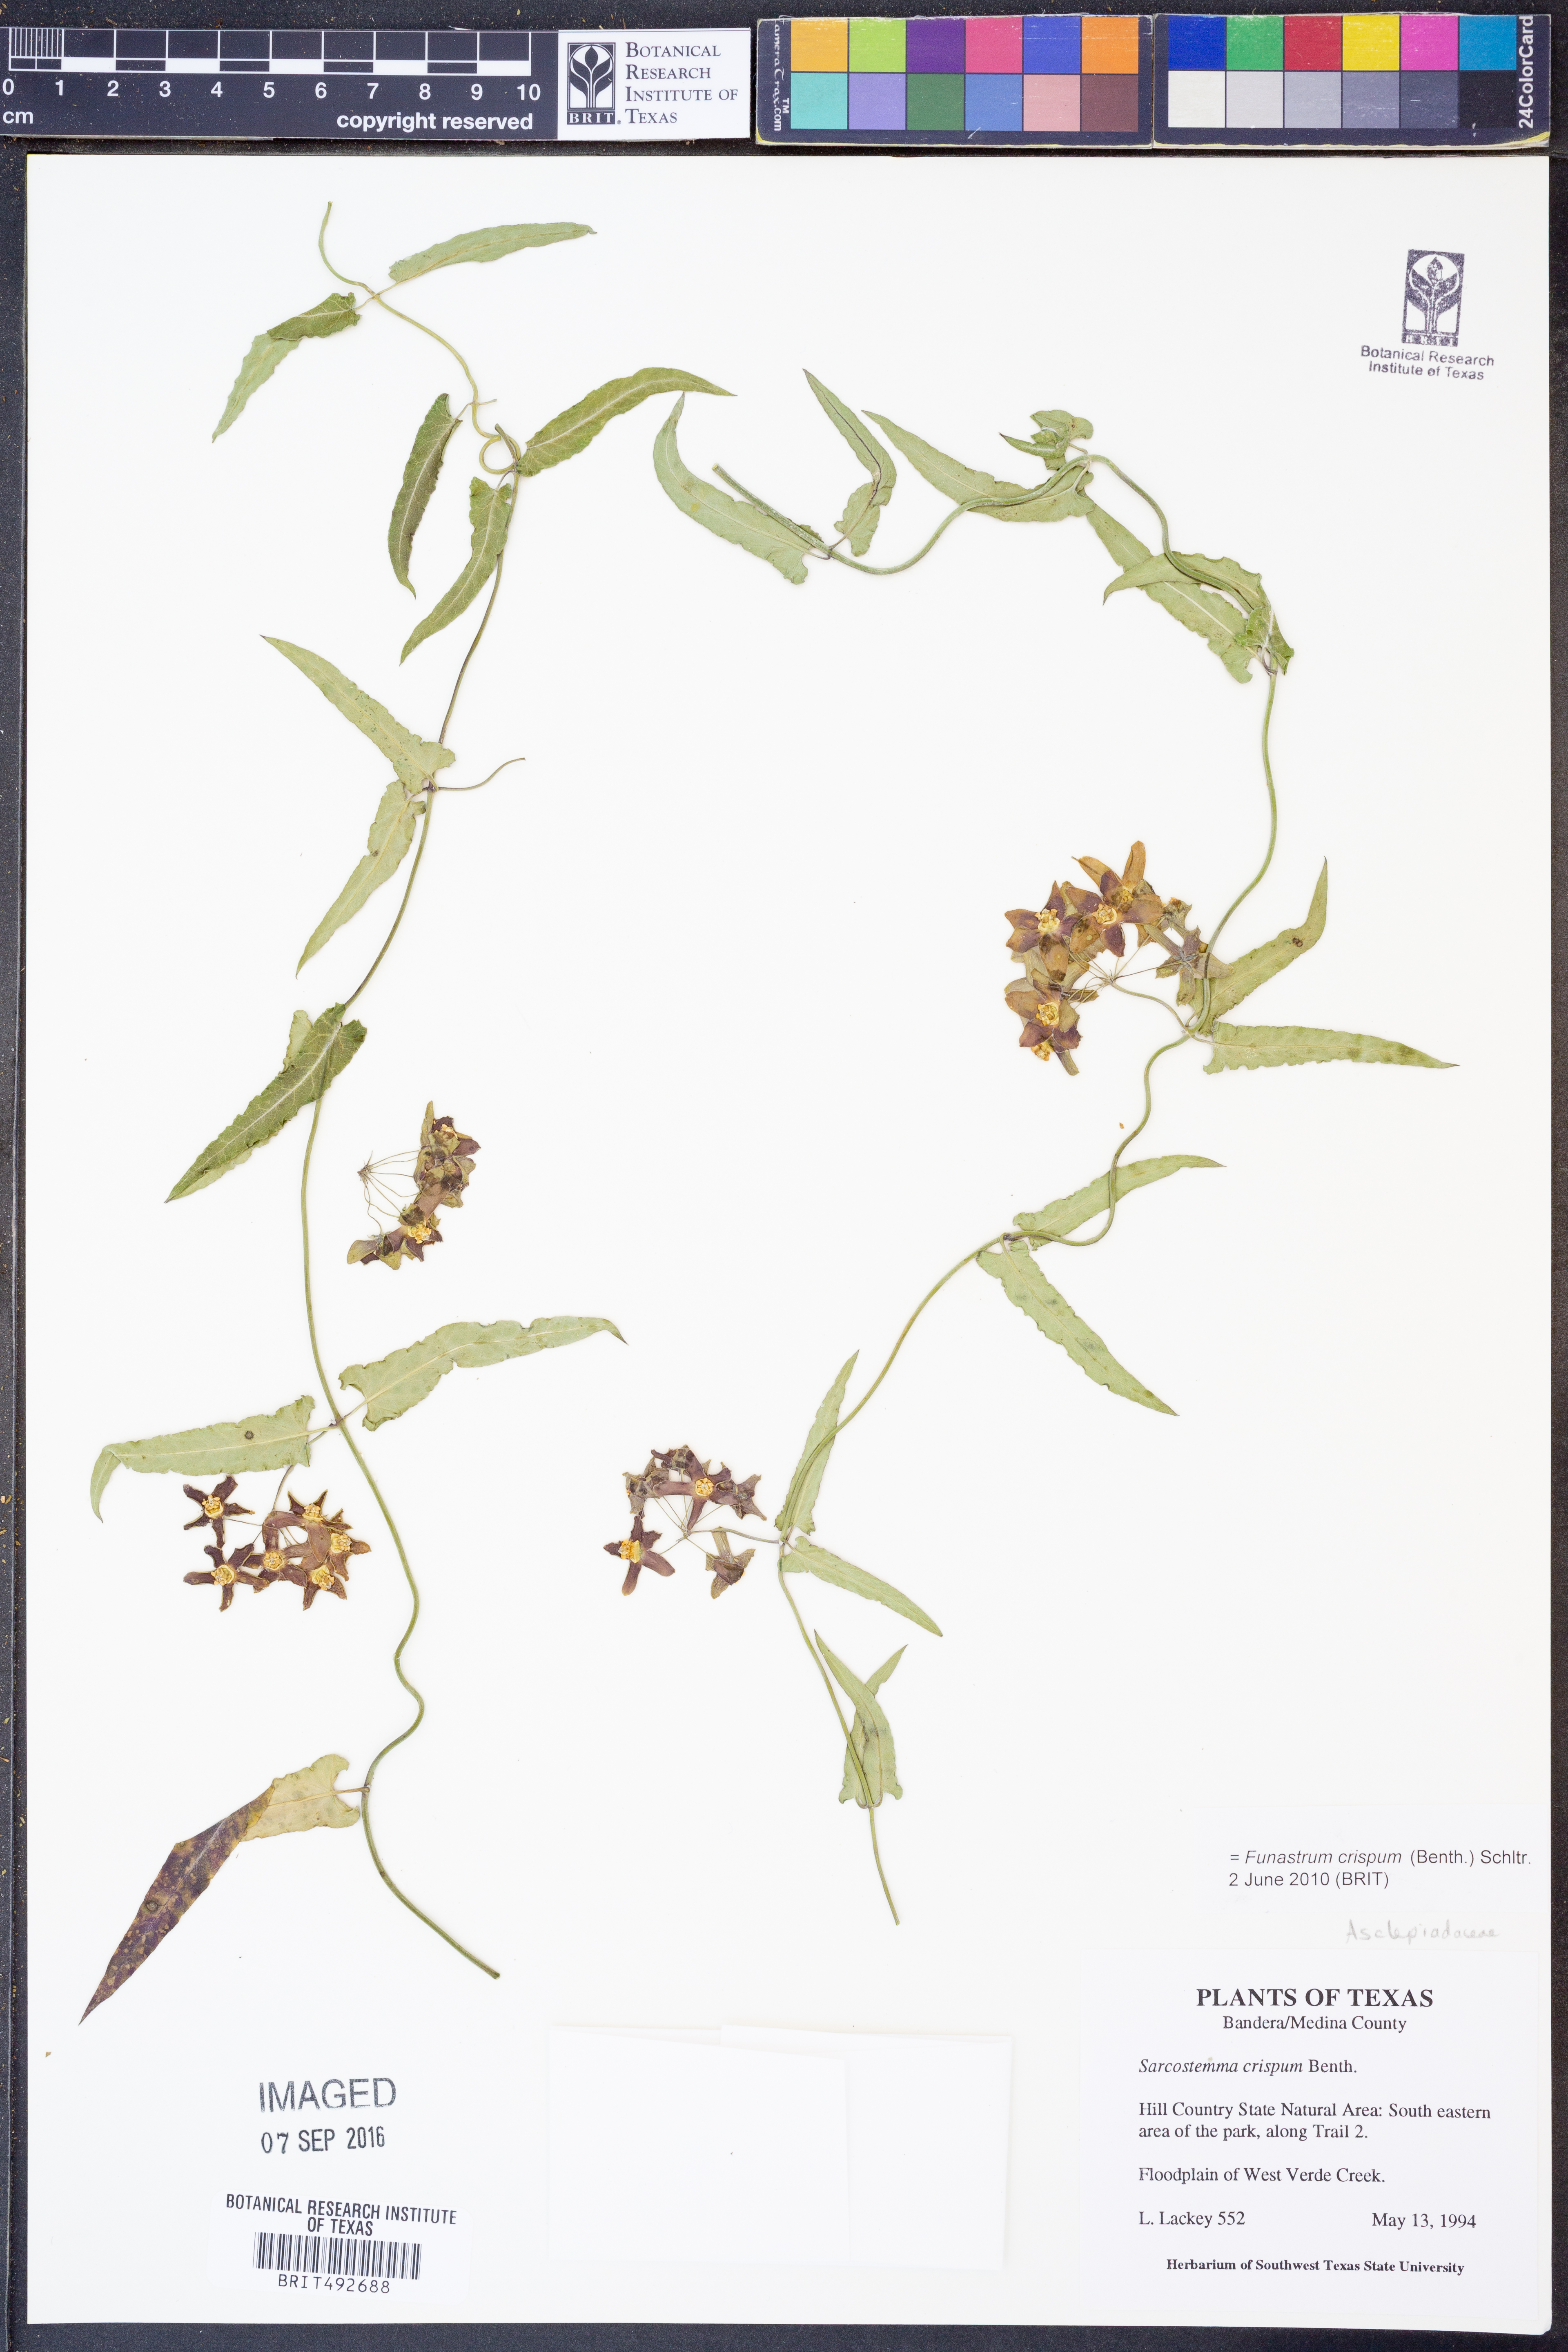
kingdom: Plantae
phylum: Tracheophyta
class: Magnoliopsida
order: Gentianales
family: Apocynaceae
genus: Funastrum
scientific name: Funastrum crispum
